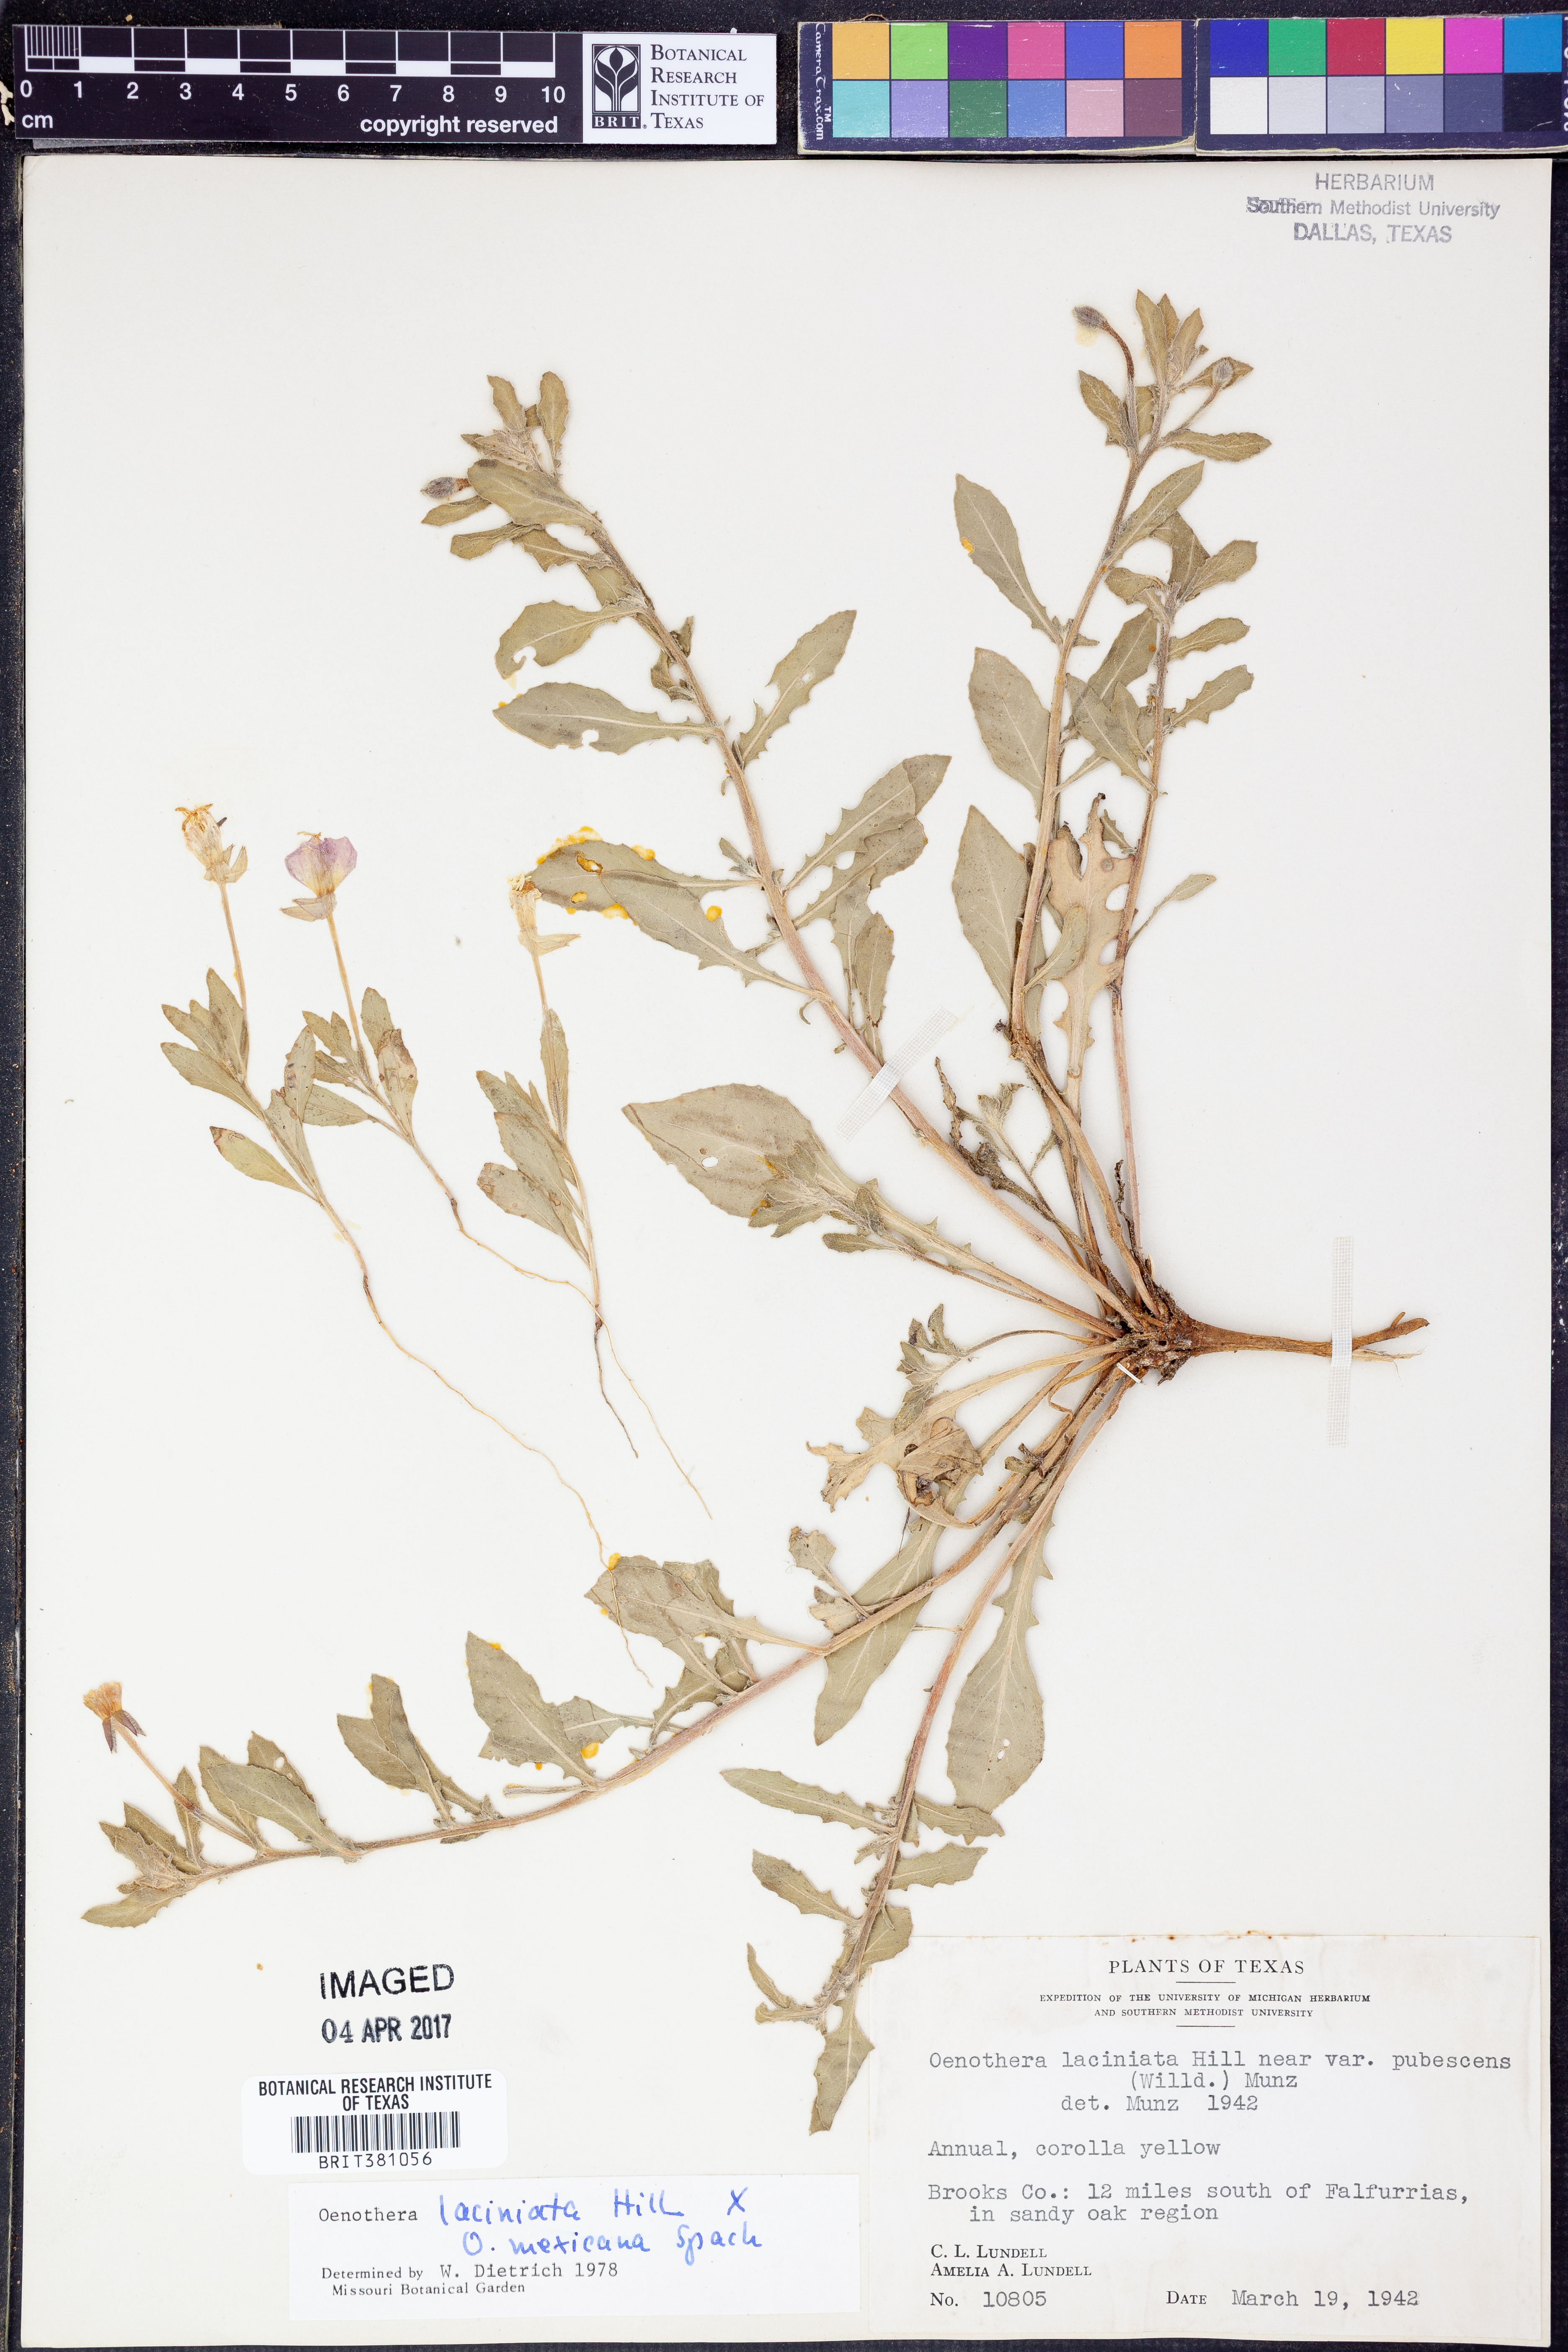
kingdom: Plantae
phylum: Tracheophyta
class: Magnoliopsida
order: Myrtales
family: Onagraceae
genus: Oenothera
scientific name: Oenothera laciniata
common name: Cut-leaved evening-primrose
